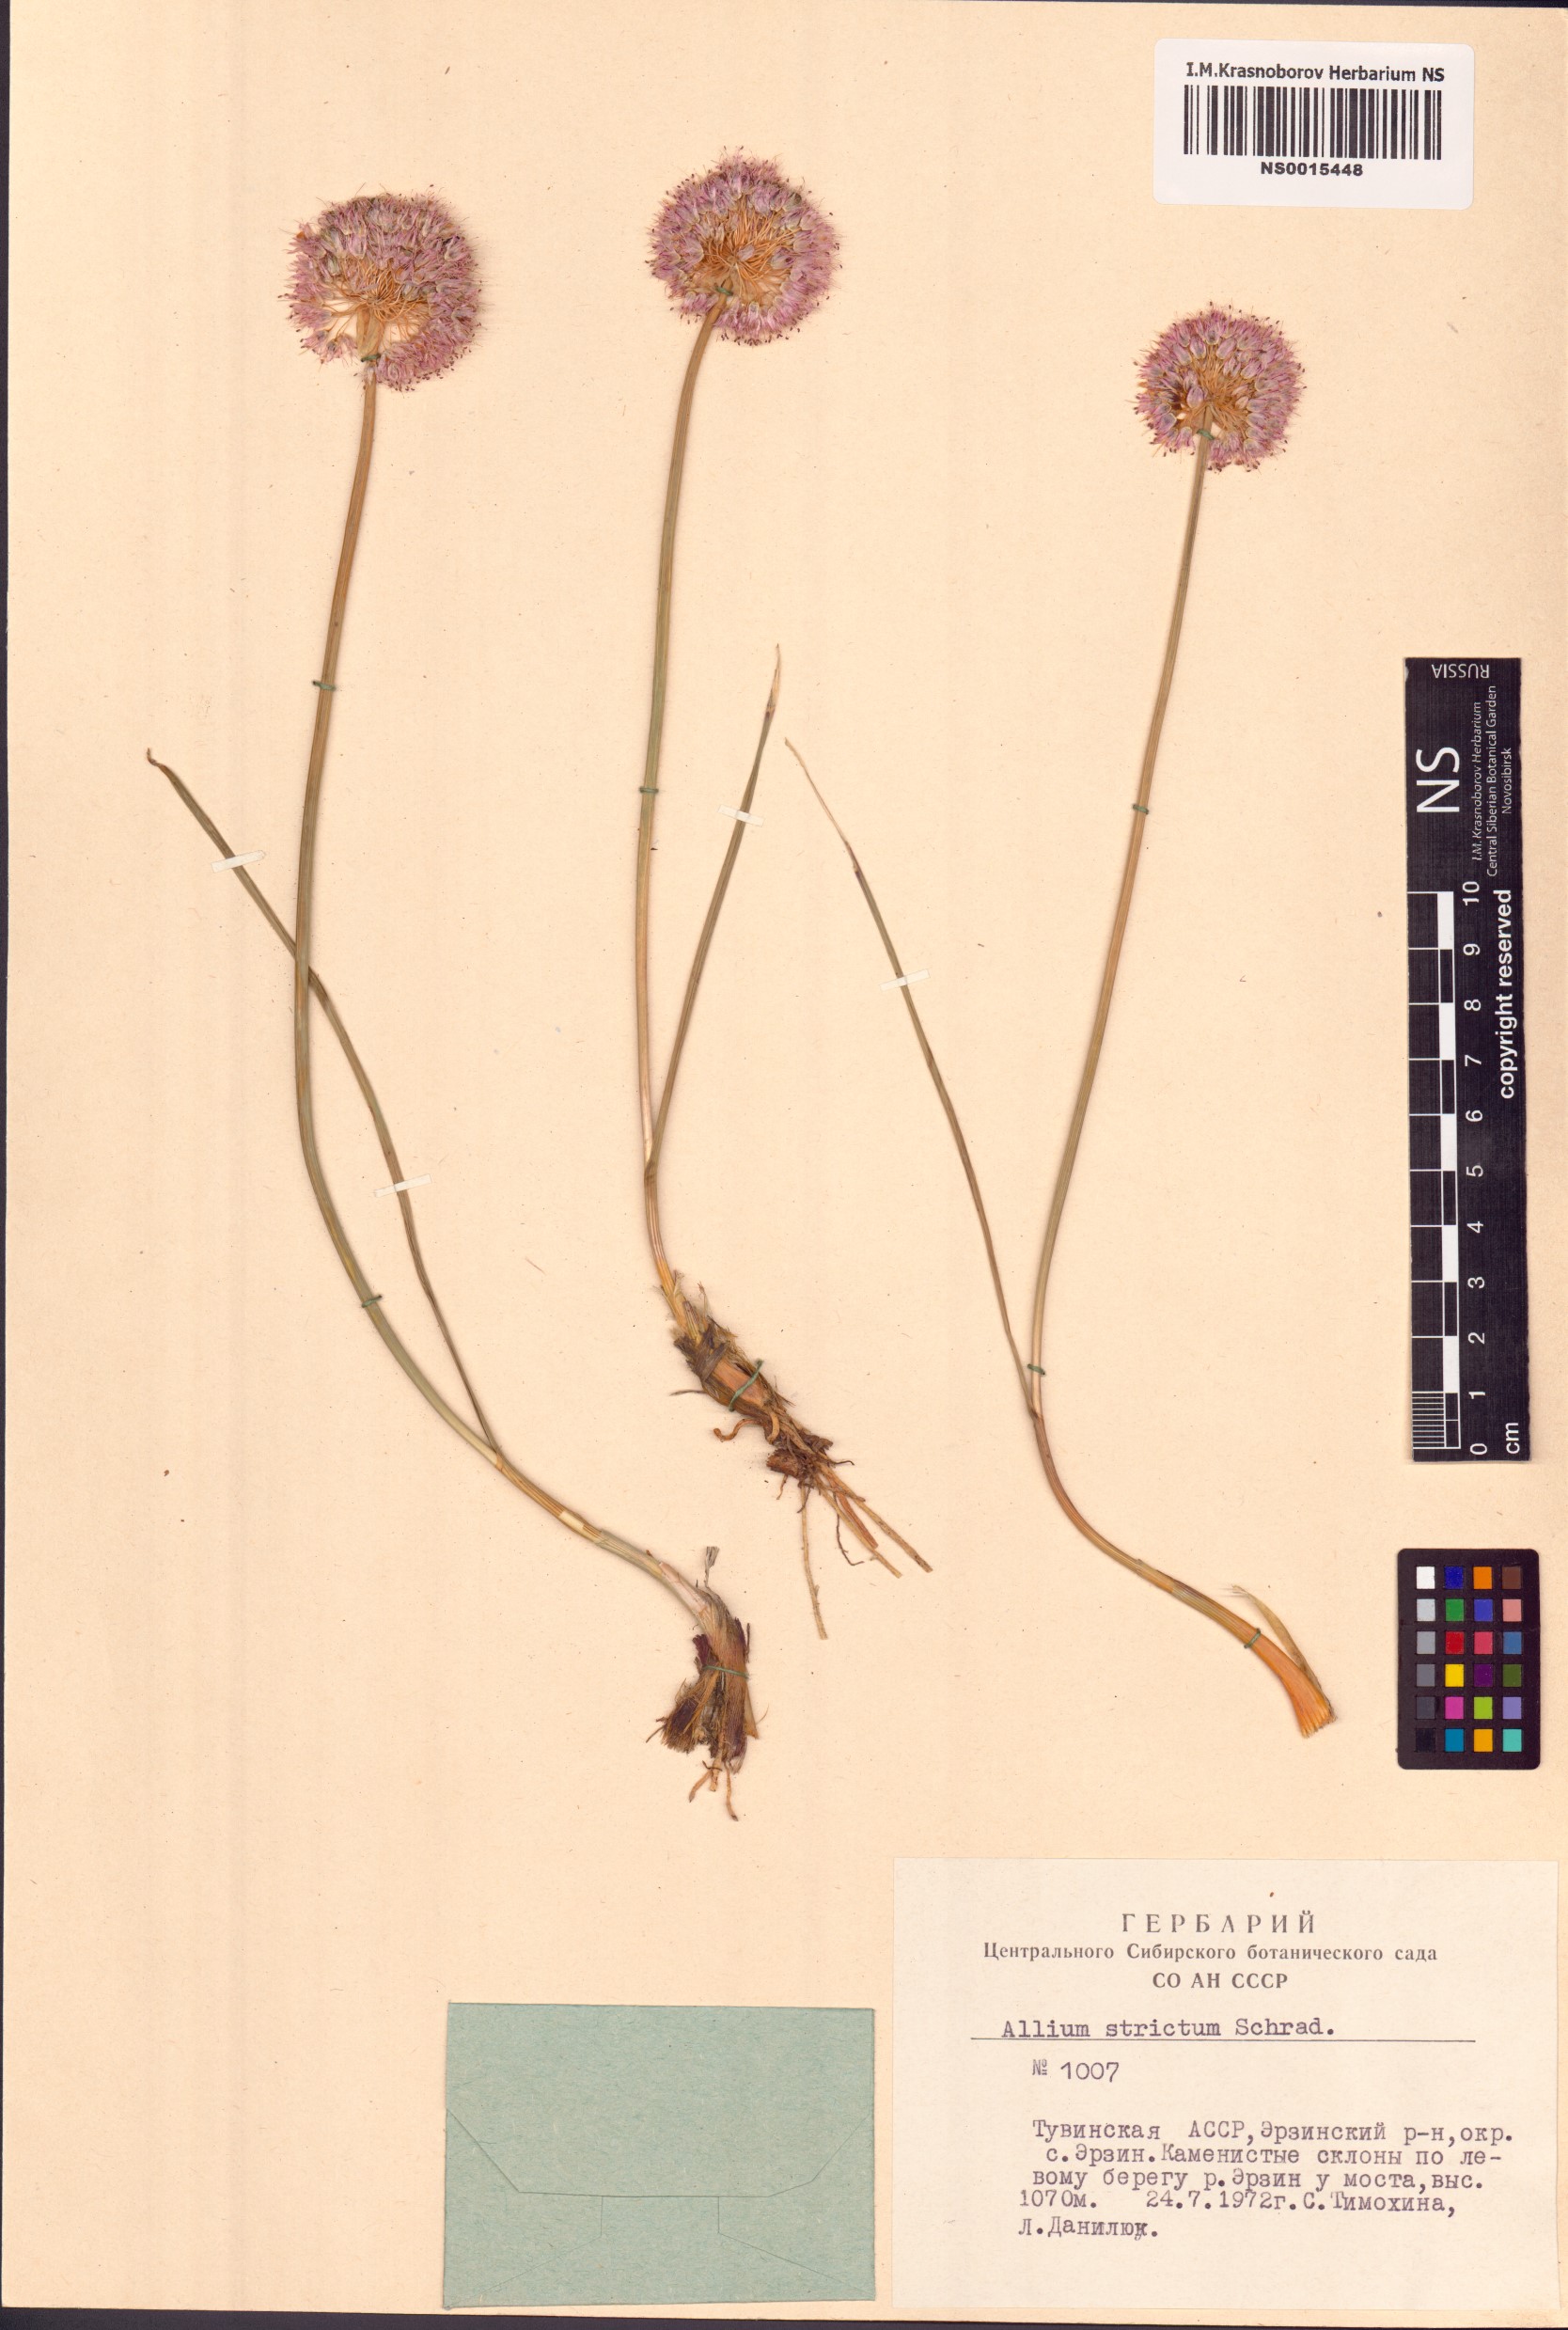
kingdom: Plantae
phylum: Tracheophyta
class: Liliopsida
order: Asparagales
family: Amaryllidaceae
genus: Allium
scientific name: Allium strictum
